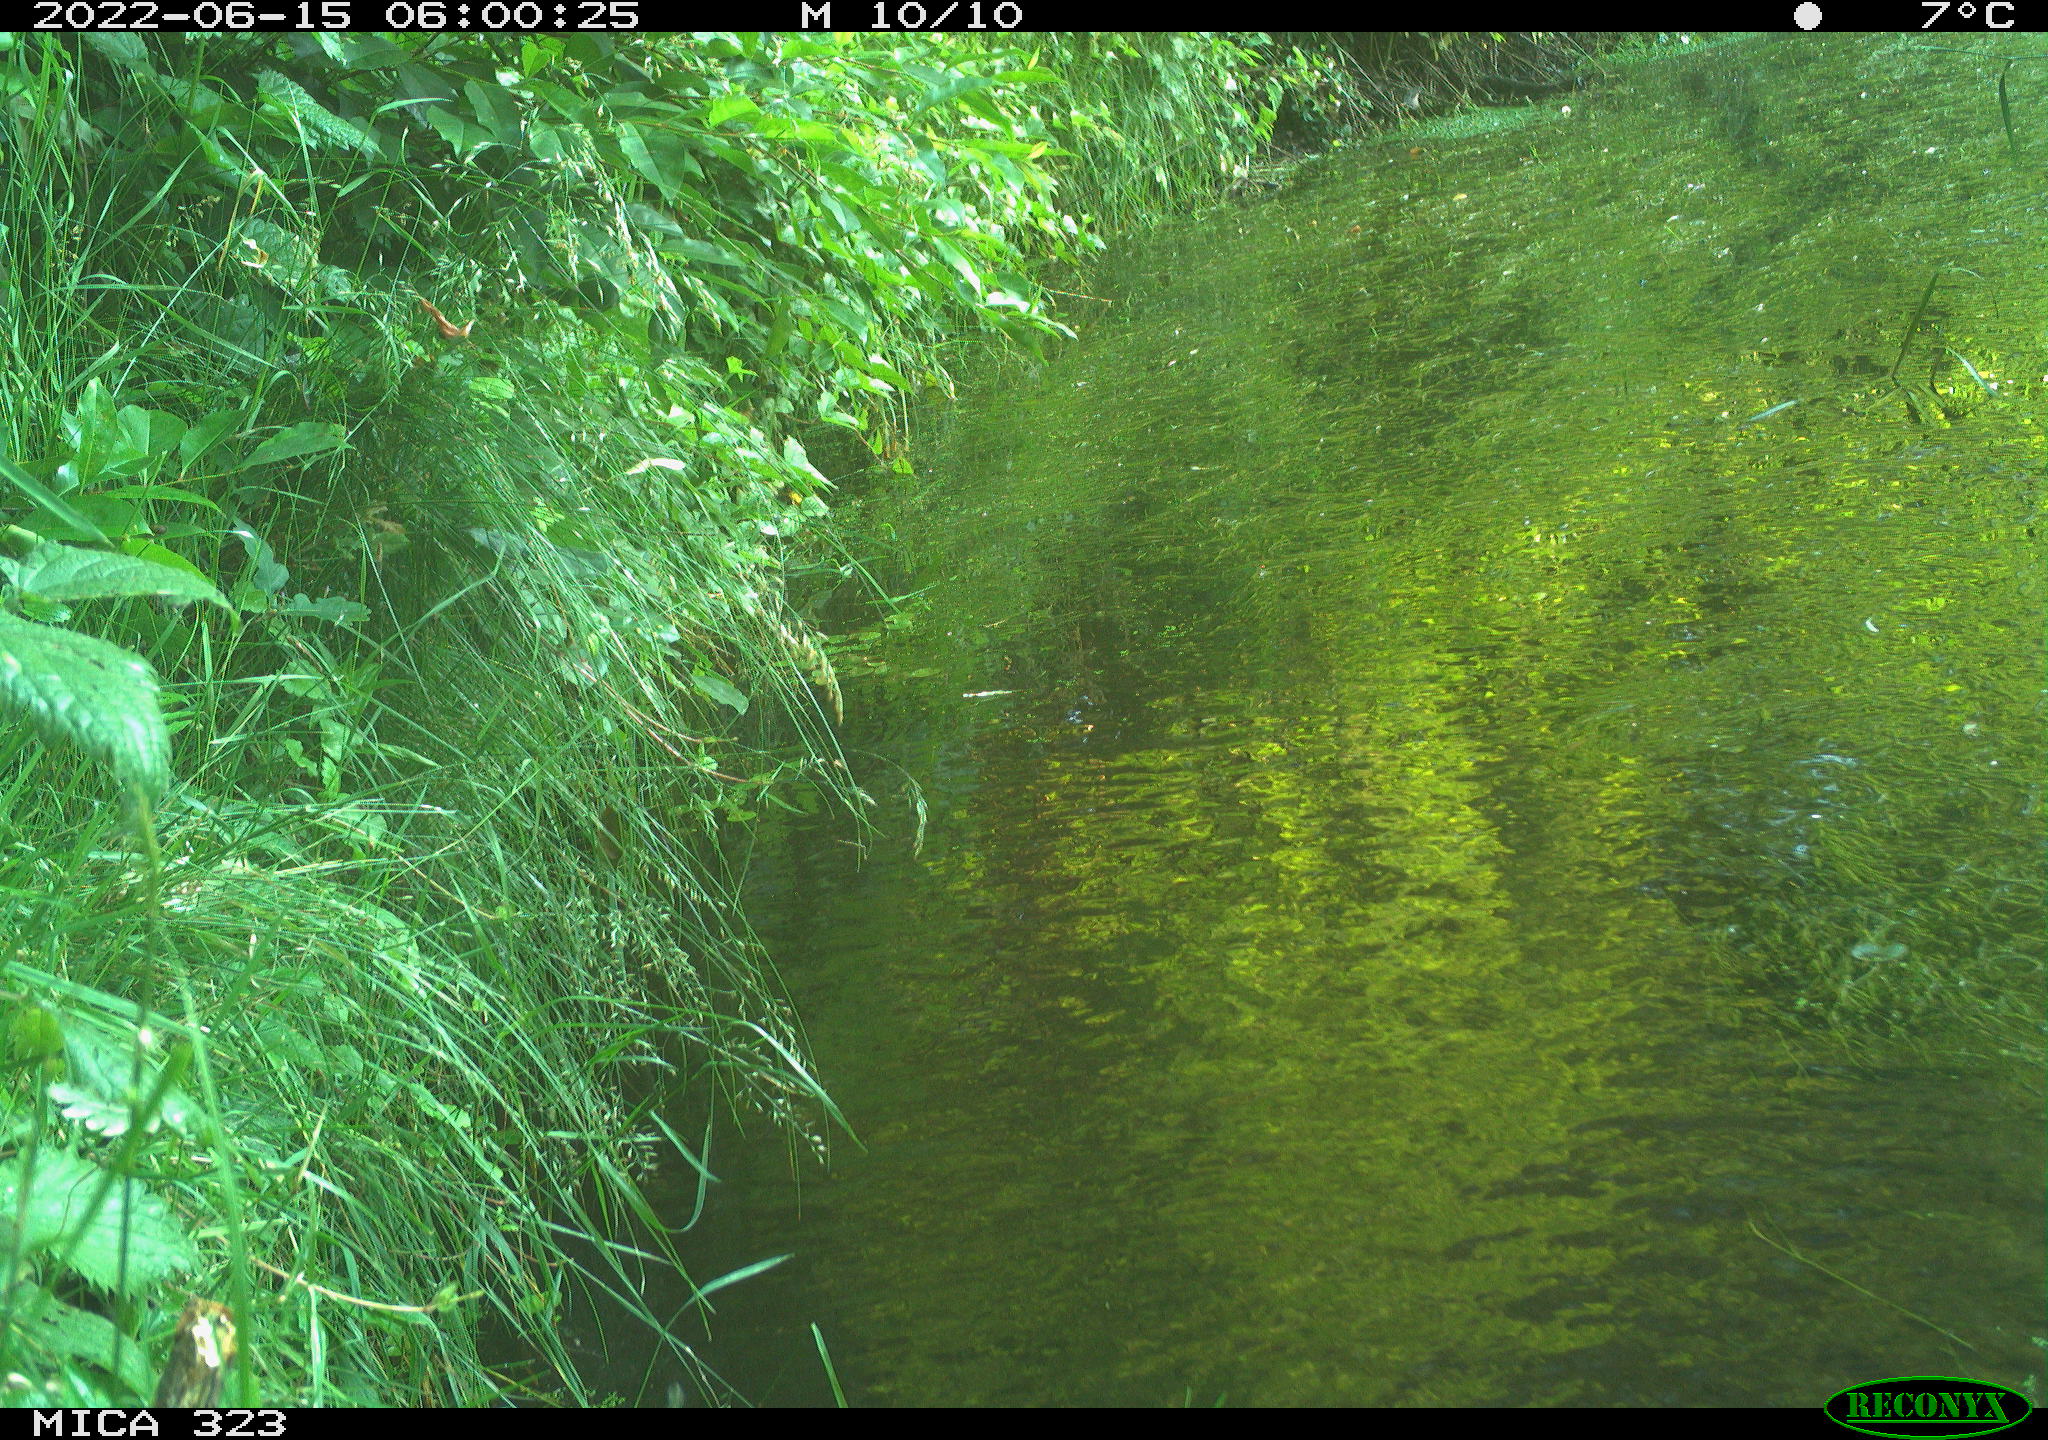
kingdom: Animalia
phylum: Chordata
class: Aves
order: Anseriformes
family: Anatidae
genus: Anas
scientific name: Anas
